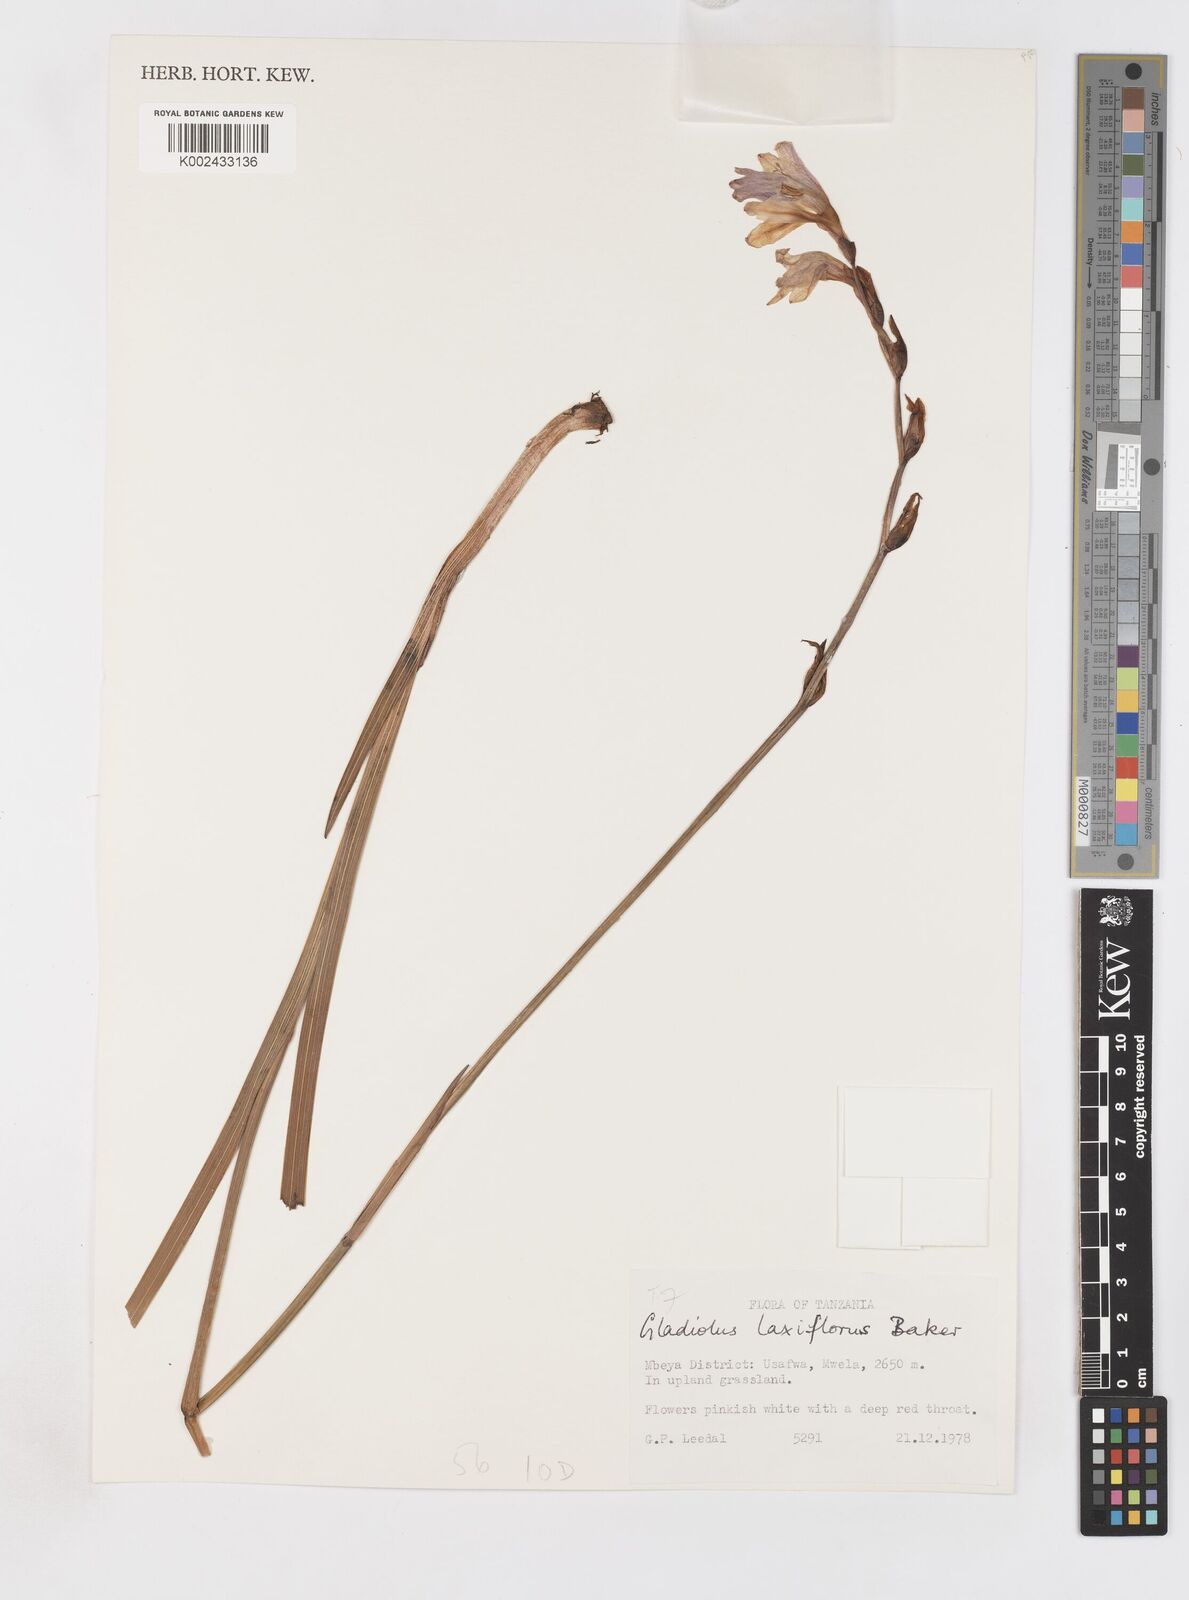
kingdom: Plantae
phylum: Tracheophyta
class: Liliopsida
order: Asparagales
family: Iridaceae
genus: Gladiolus
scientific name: Gladiolus laxiflorus
